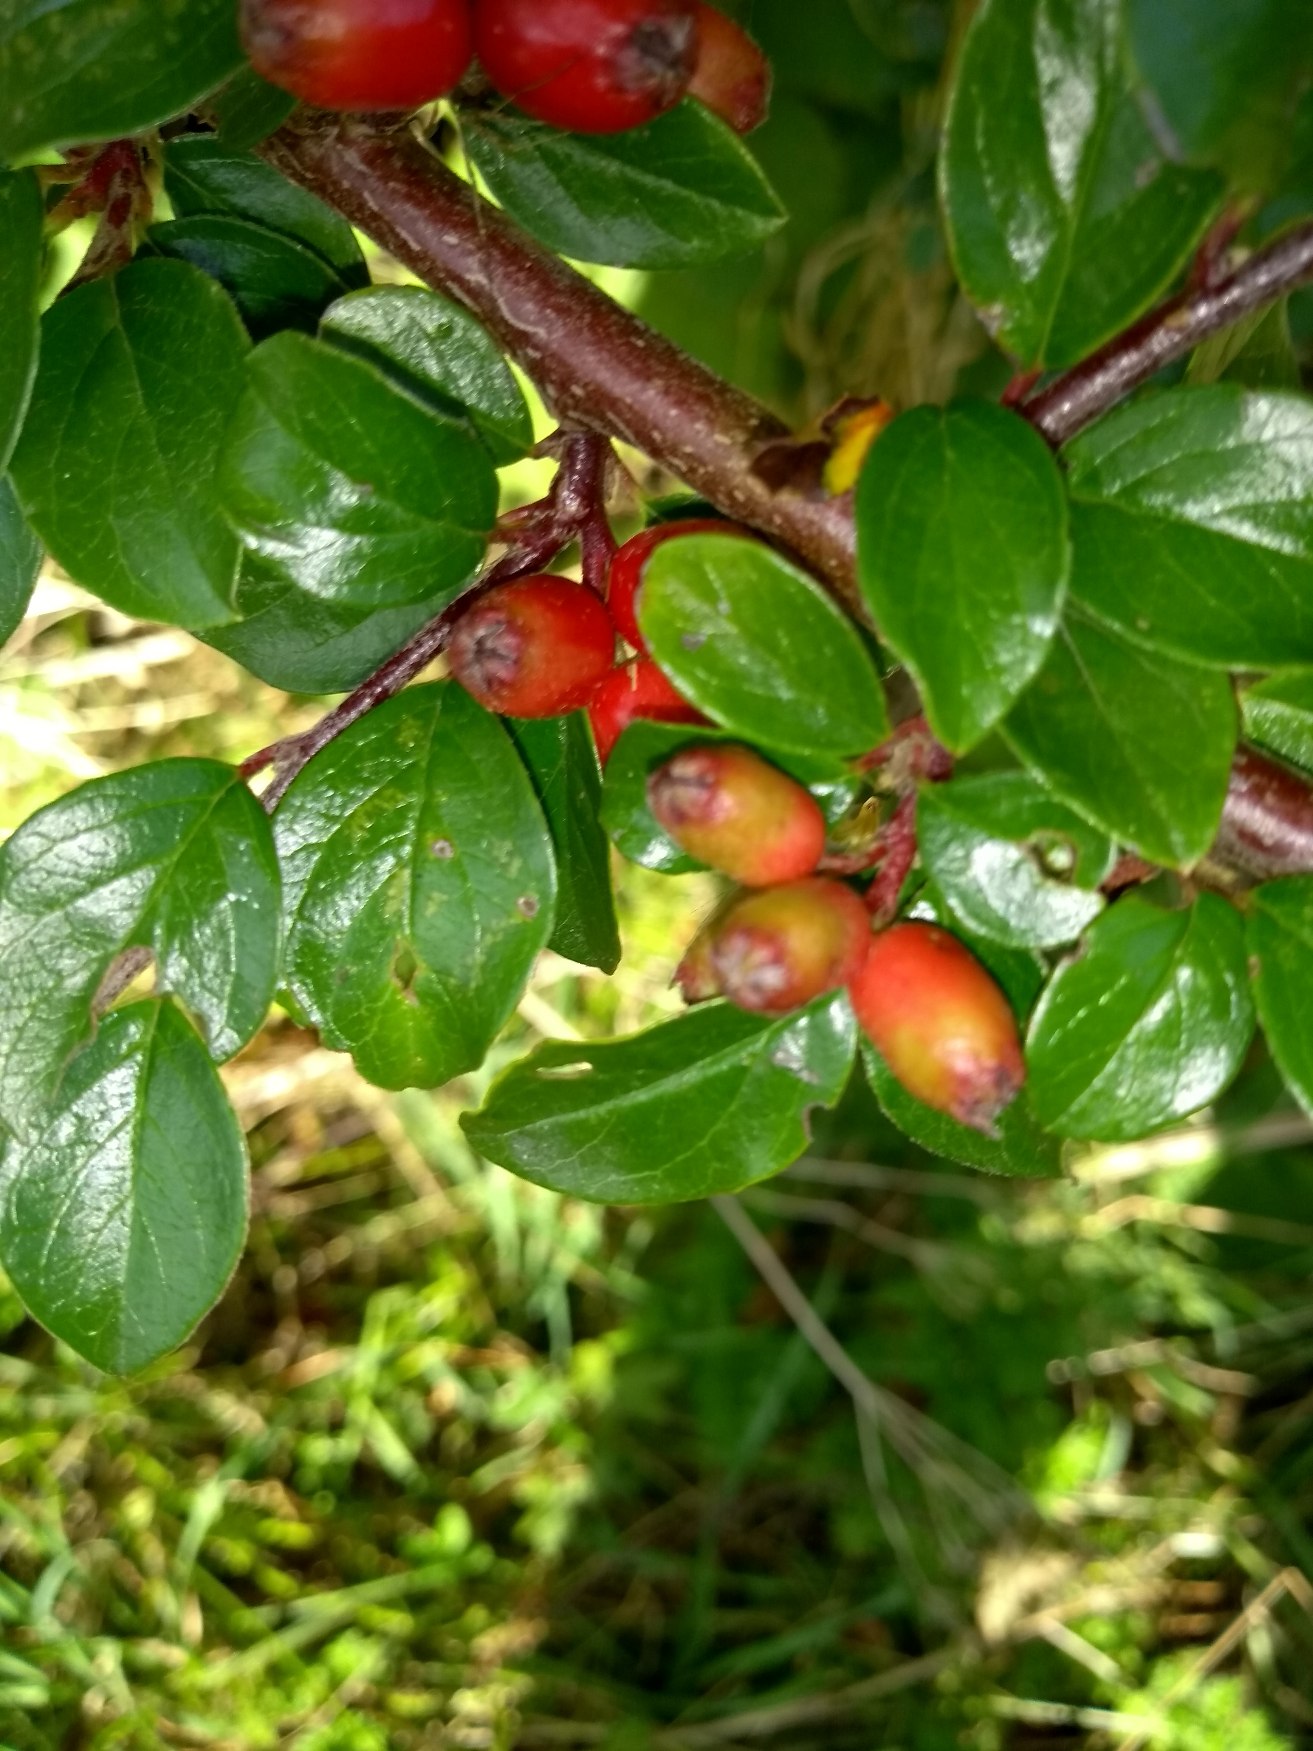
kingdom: Plantae
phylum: Tracheophyta
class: Magnoliopsida
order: Rosales
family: Rosaceae
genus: Cotoneaster
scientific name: Cotoneaster divaricatus
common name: Vifte-dværgmispel
